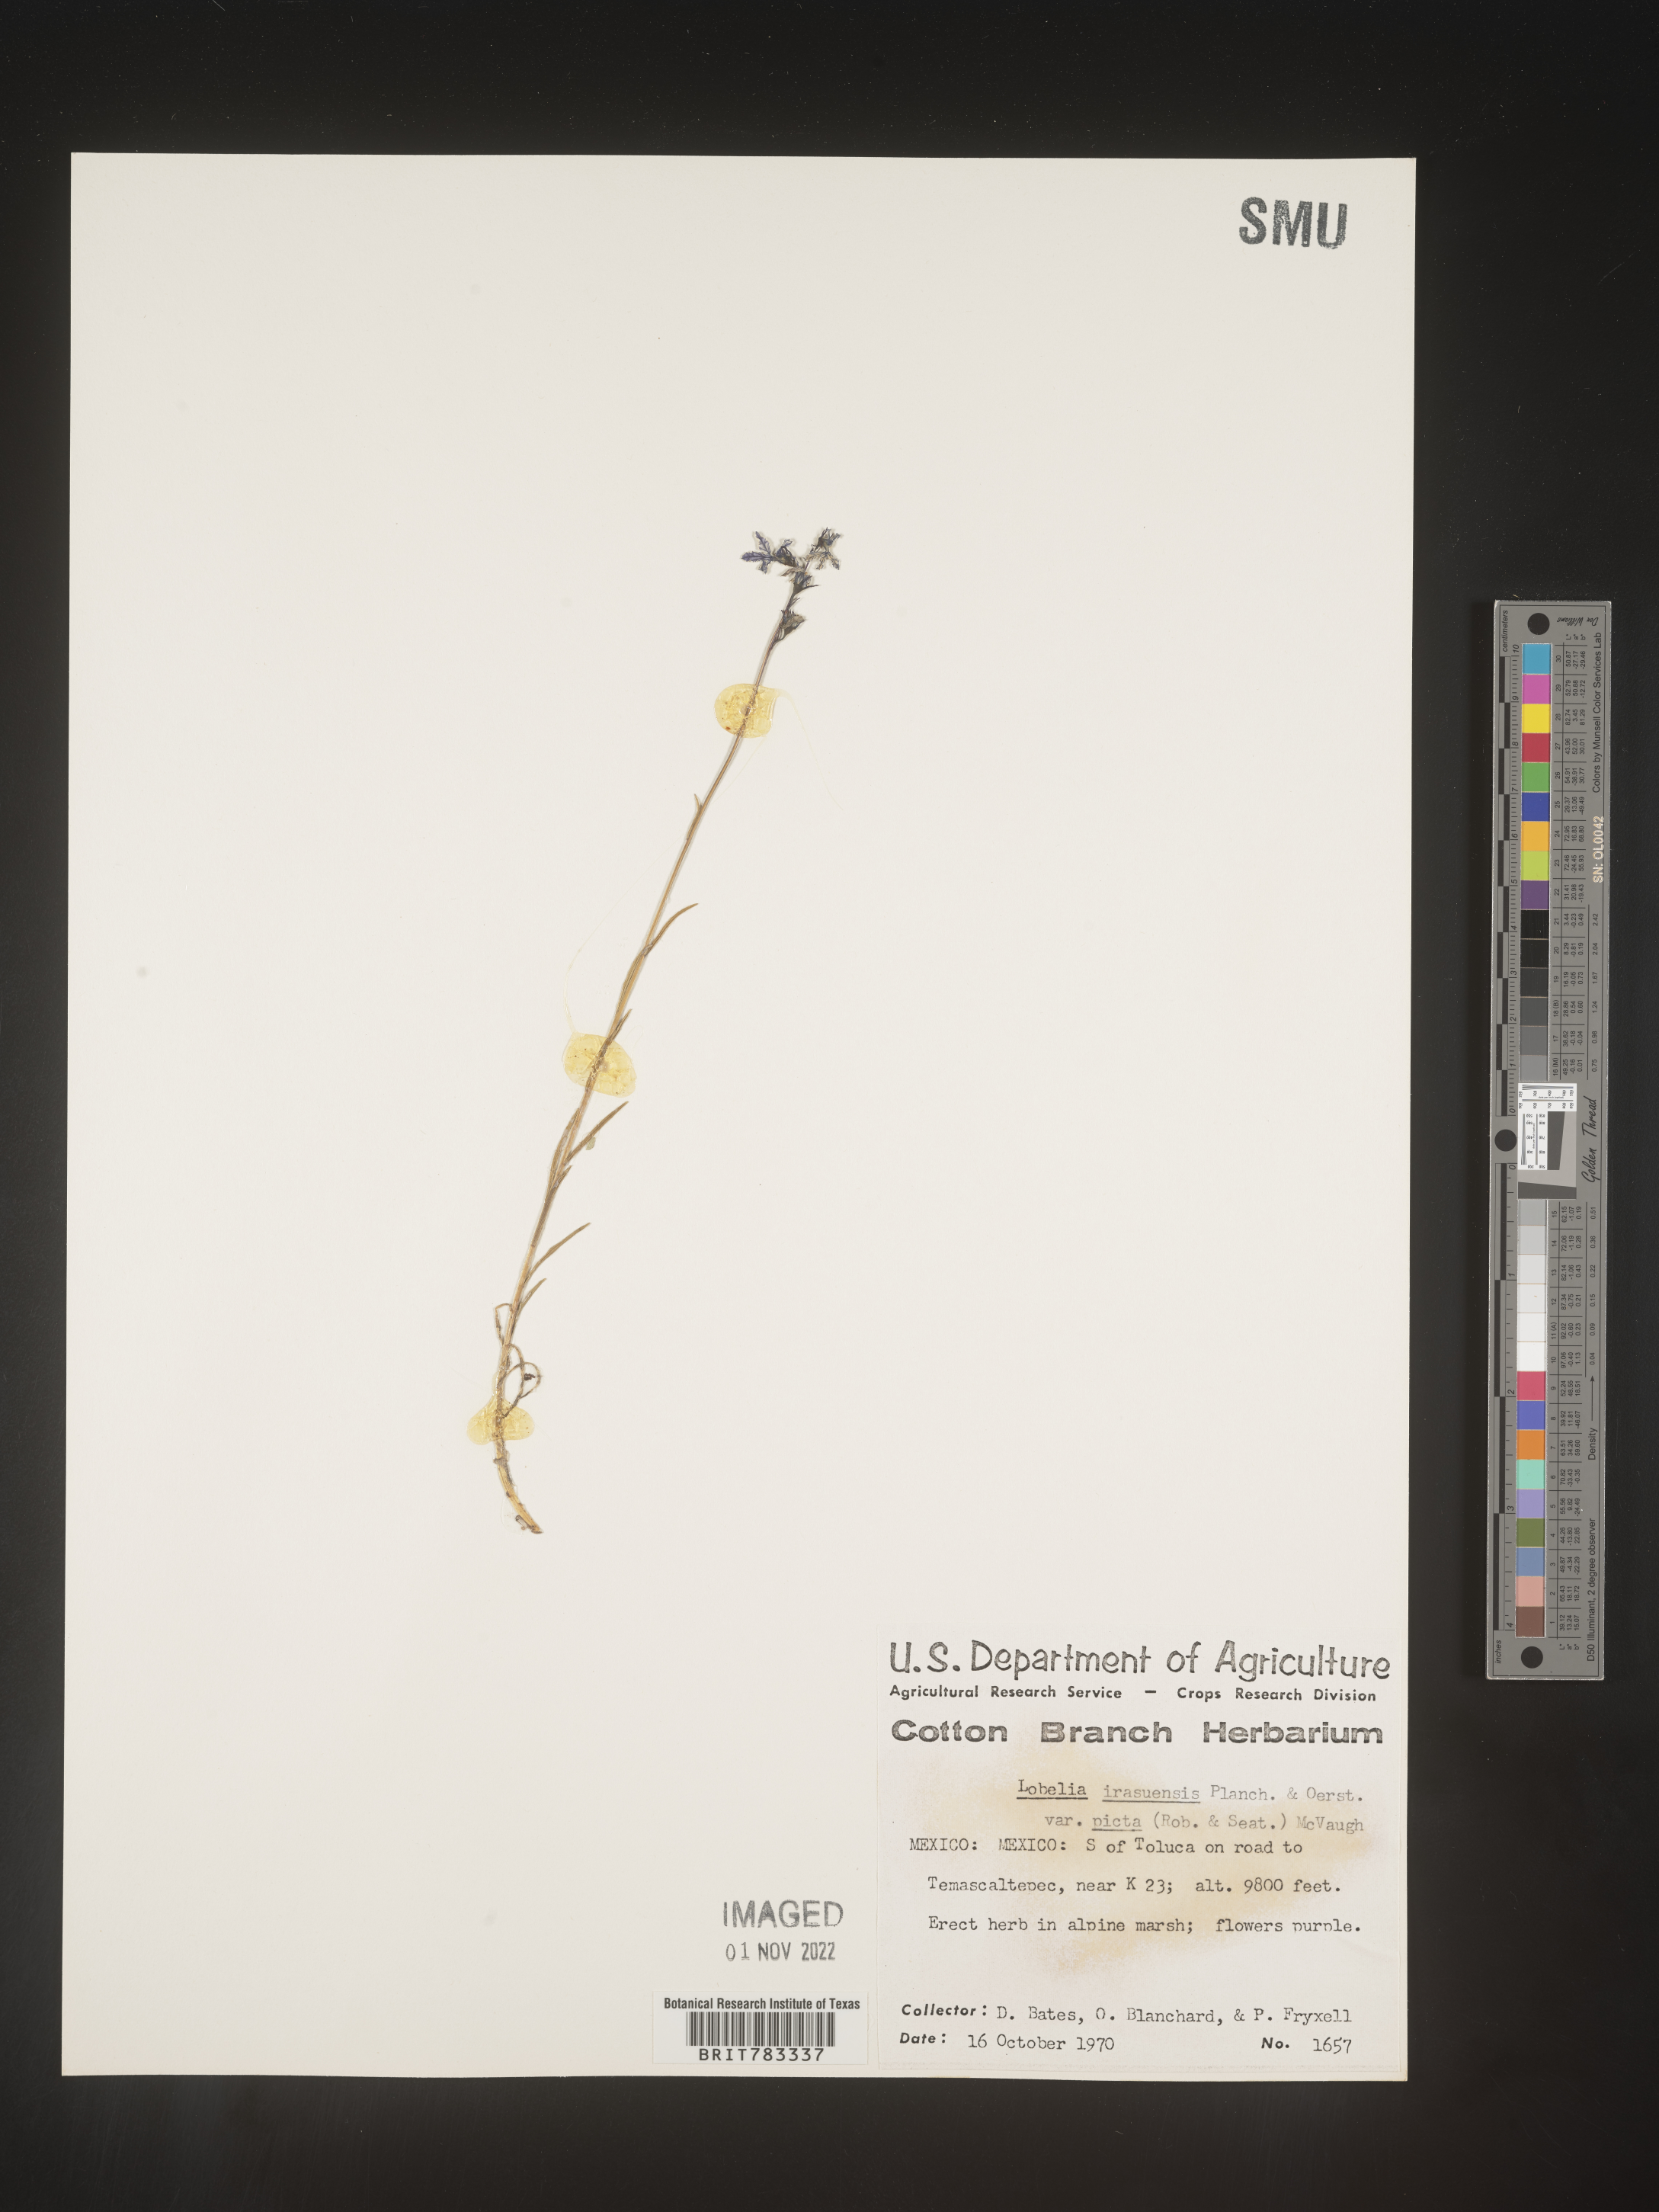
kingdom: Plantae
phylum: Tracheophyta
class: Magnoliopsida
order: Asterales
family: Campanulaceae
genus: Lobelia
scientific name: Lobelia
